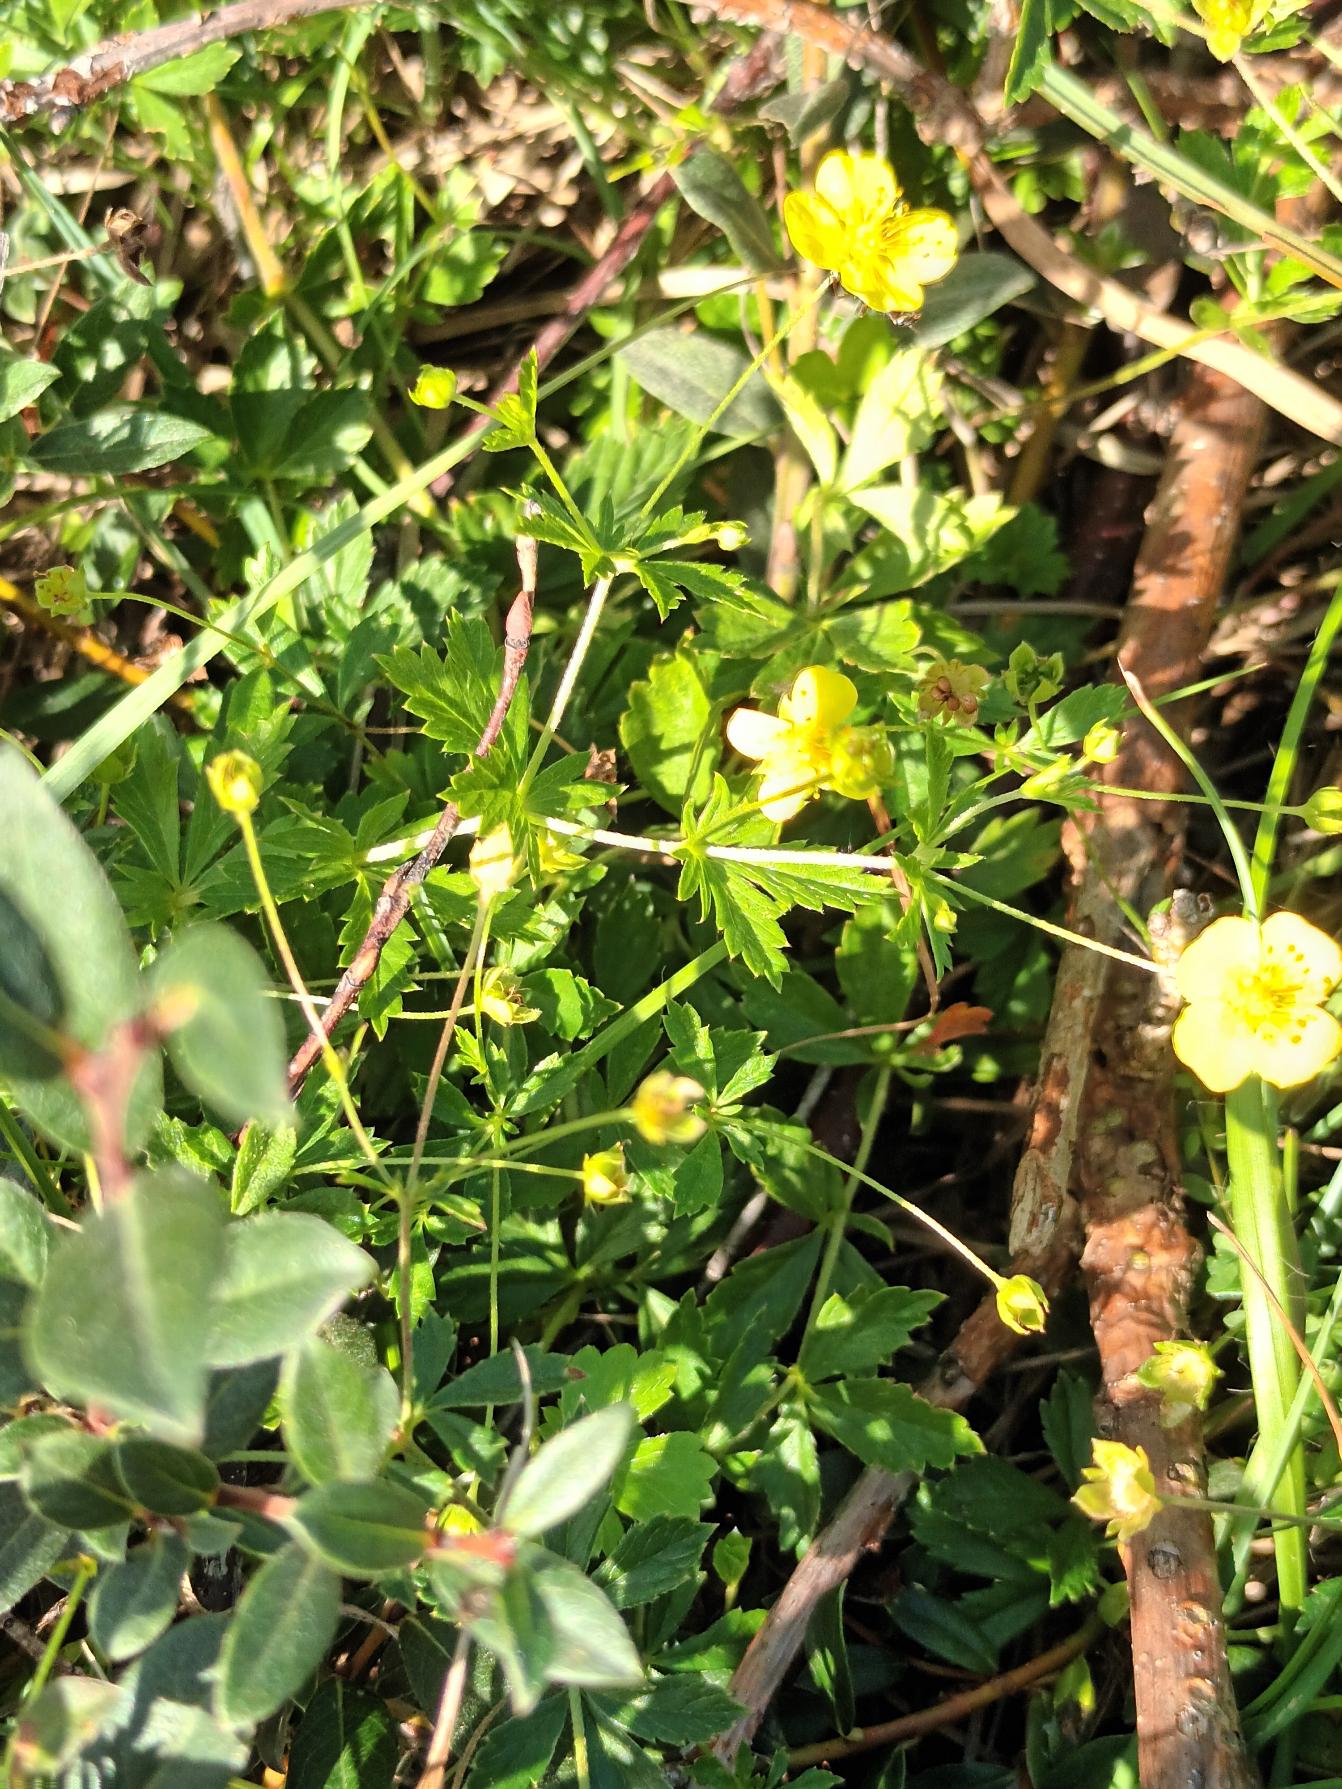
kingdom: Plantae
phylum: Tracheophyta
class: Magnoliopsida
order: Rosales
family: Rosaceae
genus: Potentilla
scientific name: Potentilla erecta
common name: Tormentil
